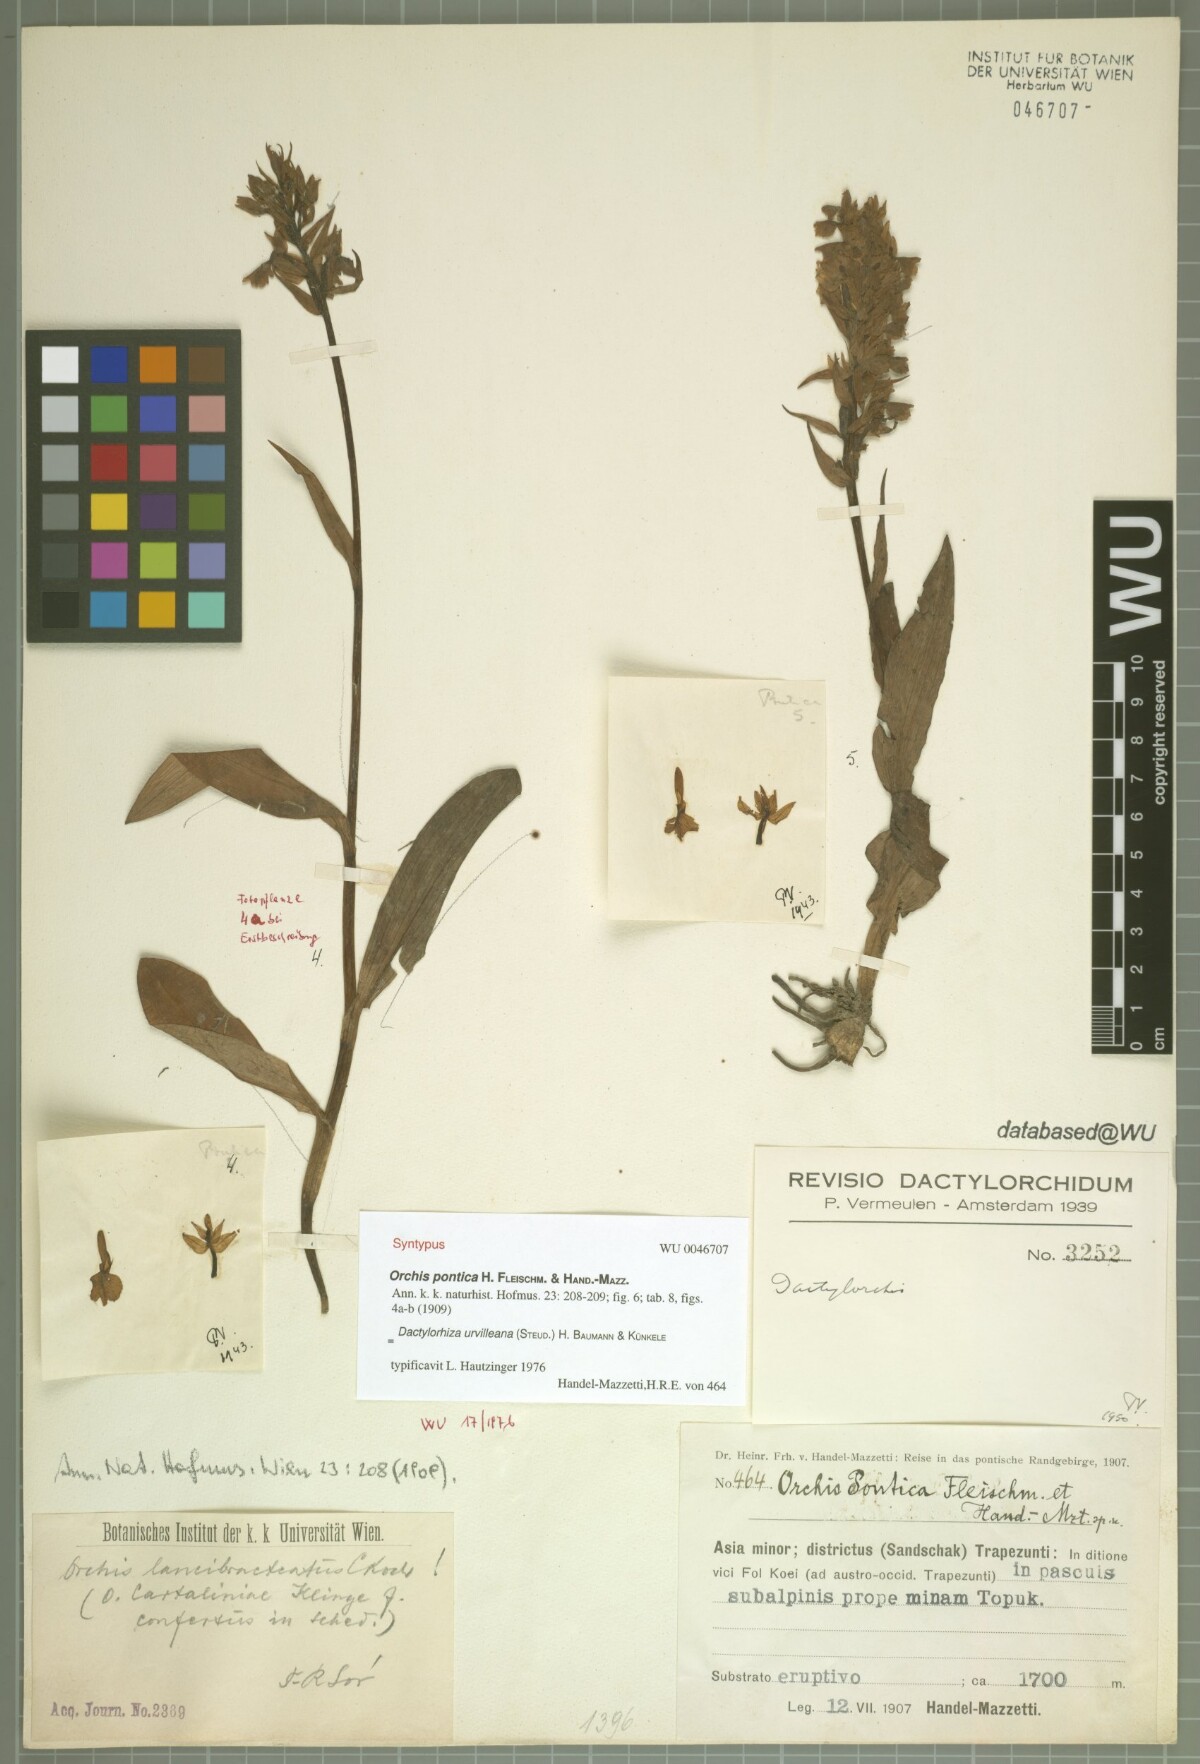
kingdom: Plantae
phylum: Tracheophyta
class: Liliopsida
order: Asparagales
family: Orchidaceae
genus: Dactylorhiza
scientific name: Dactylorhiza urvilleana
